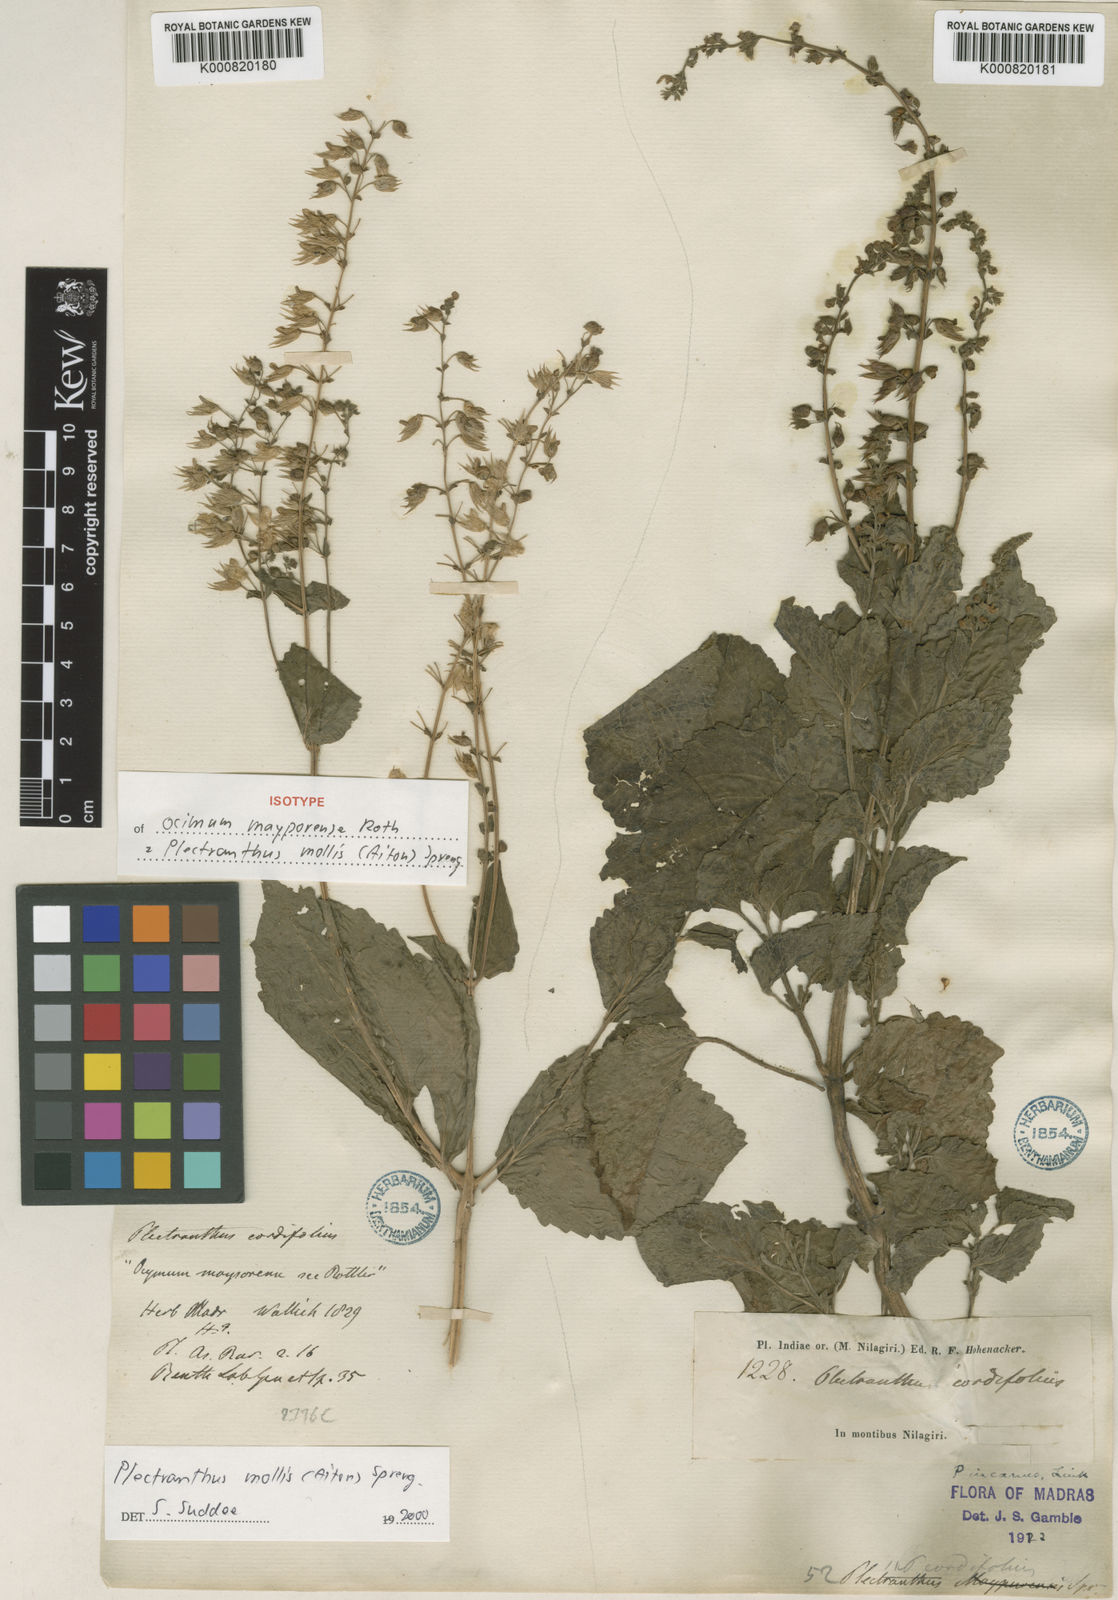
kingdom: Plantae
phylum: Tracheophyta
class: Magnoliopsida
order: Lamiales
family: Lamiaceae
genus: Equilabium
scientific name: Equilabium molle
